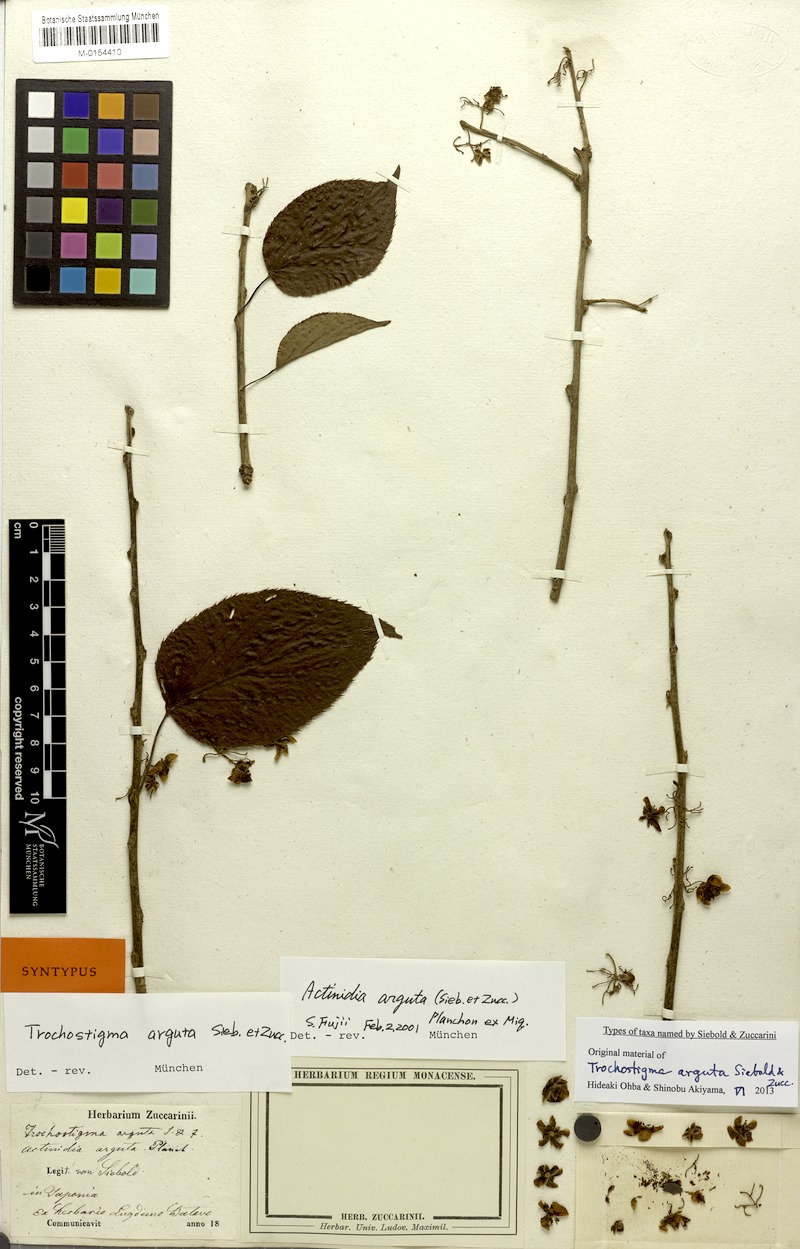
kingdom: Plantae
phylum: Tracheophyta
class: Magnoliopsida
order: Ericales
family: Actinidiaceae
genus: Actinidia
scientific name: Actinidia arguta
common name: Tara vine
